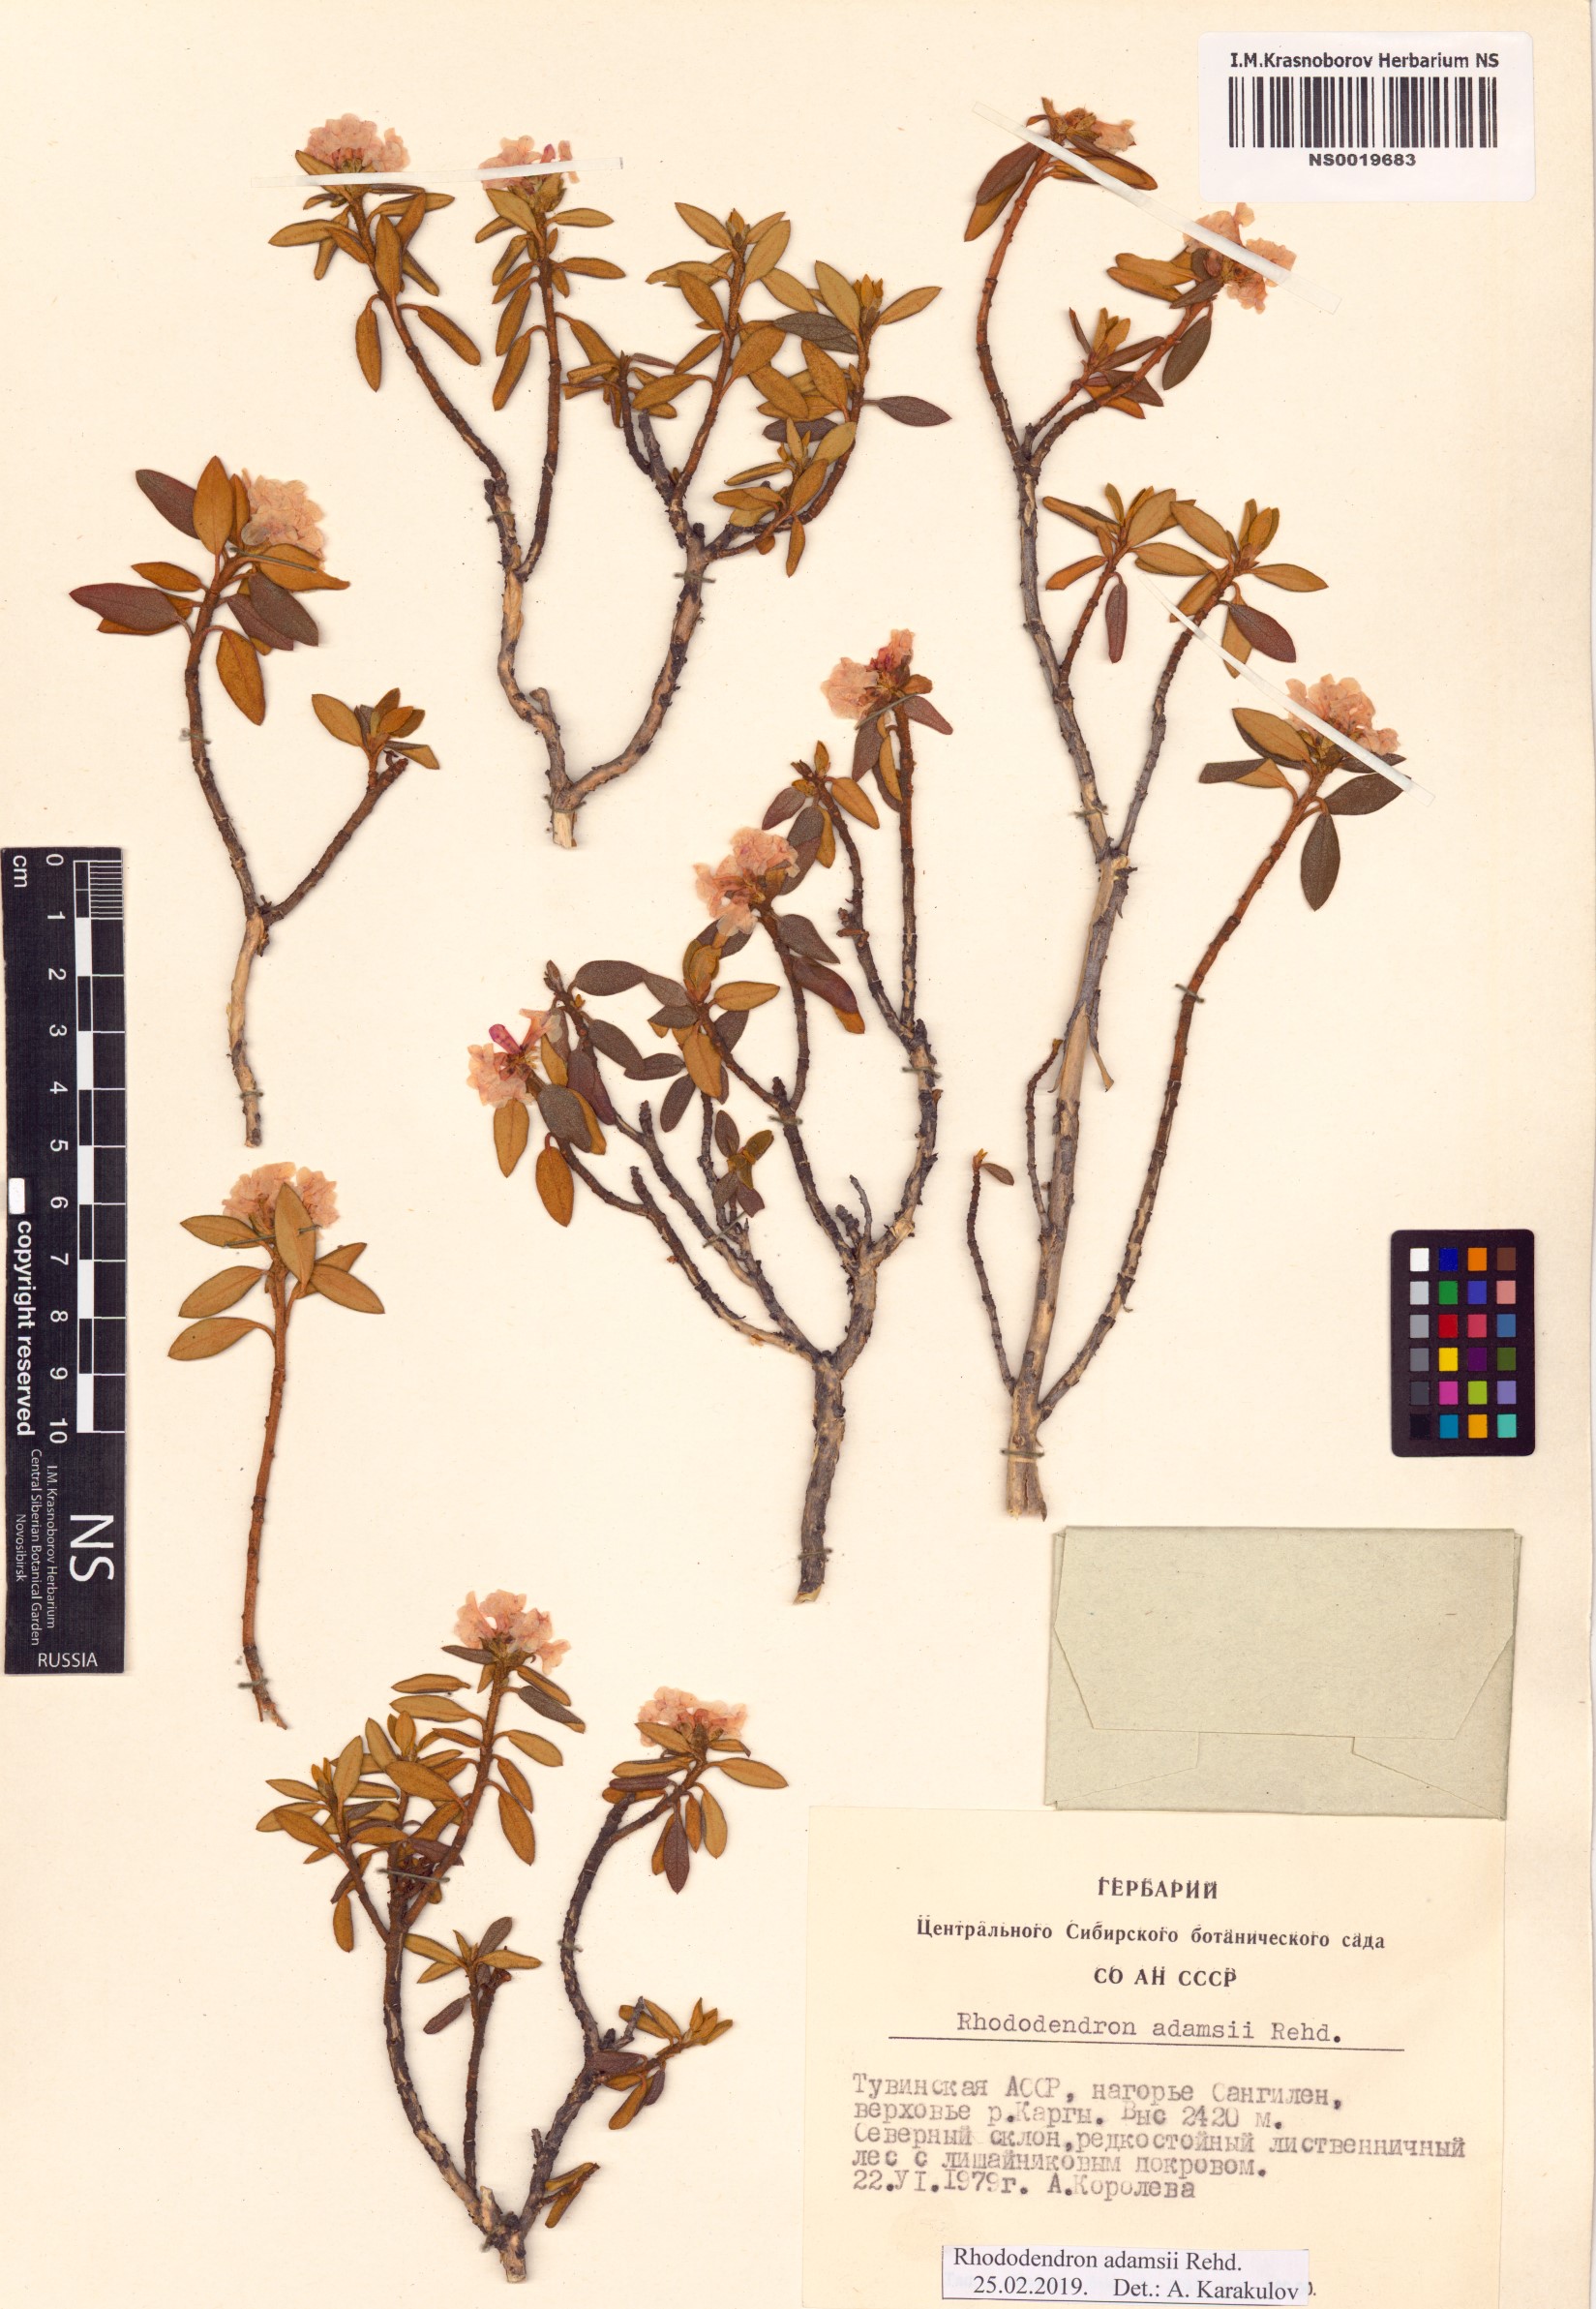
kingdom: Plantae
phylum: Tracheophyta
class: Magnoliopsida
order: Ericales
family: Ericaceae
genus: Rhododendron
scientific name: Rhododendron adamsii
